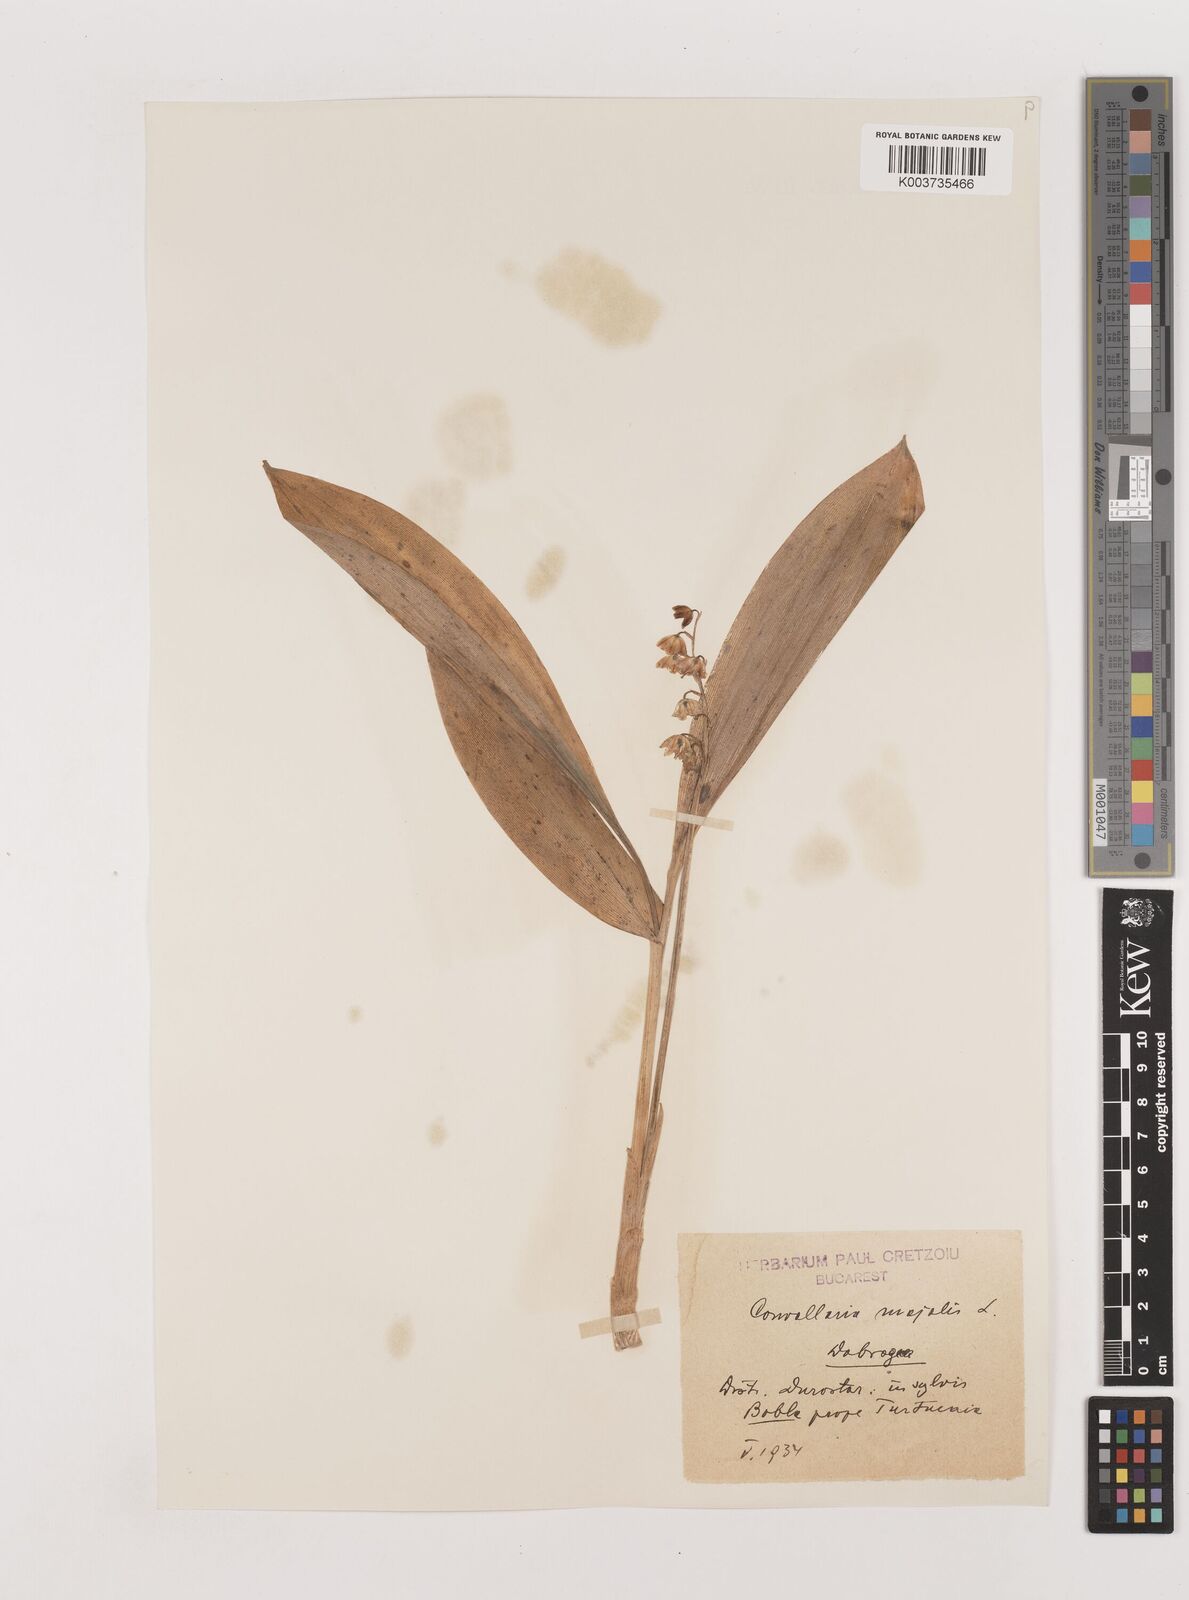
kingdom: Plantae
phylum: Tracheophyta
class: Liliopsida
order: Asparagales
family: Asparagaceae
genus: Convallaria
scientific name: Convallaria majalis
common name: Lily-of-the-valley
